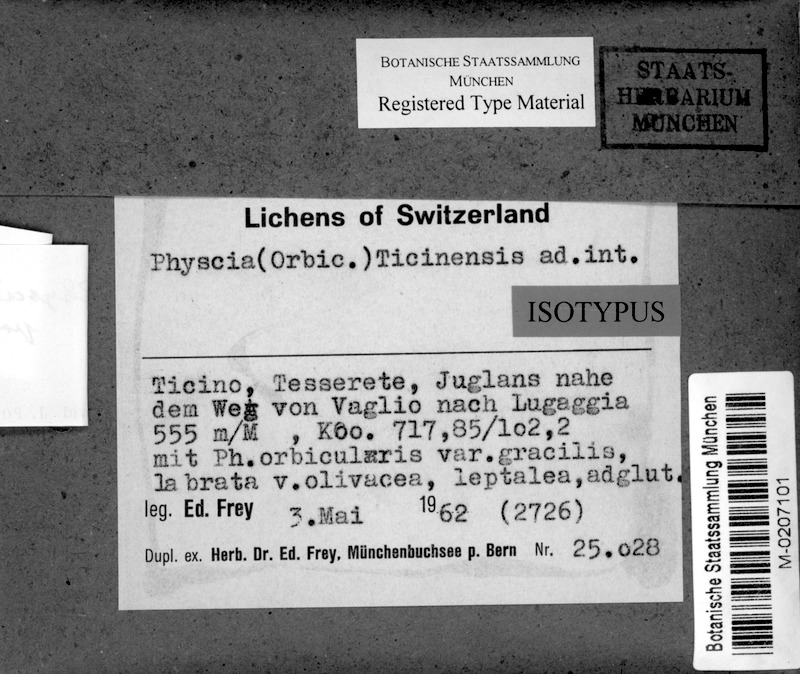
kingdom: Fungi
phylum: Ascomycota
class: Lecanoromycetes
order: Caliciales
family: Physciaceae
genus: Physciella
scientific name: Physciella poeltii
